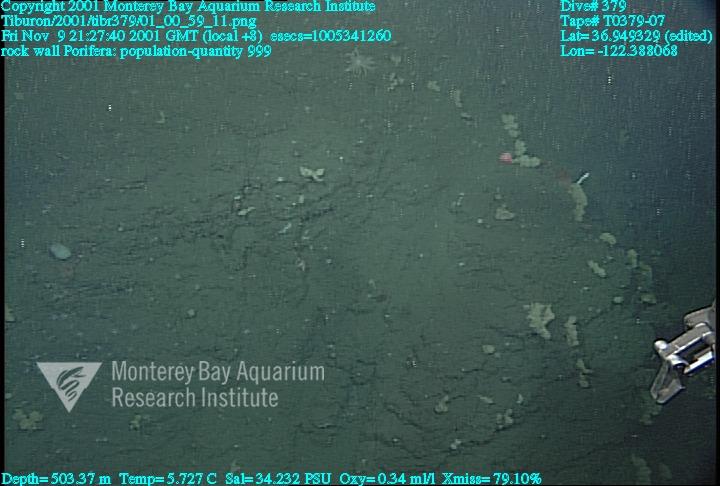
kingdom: Animalia
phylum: Porifera
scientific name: Porifera
